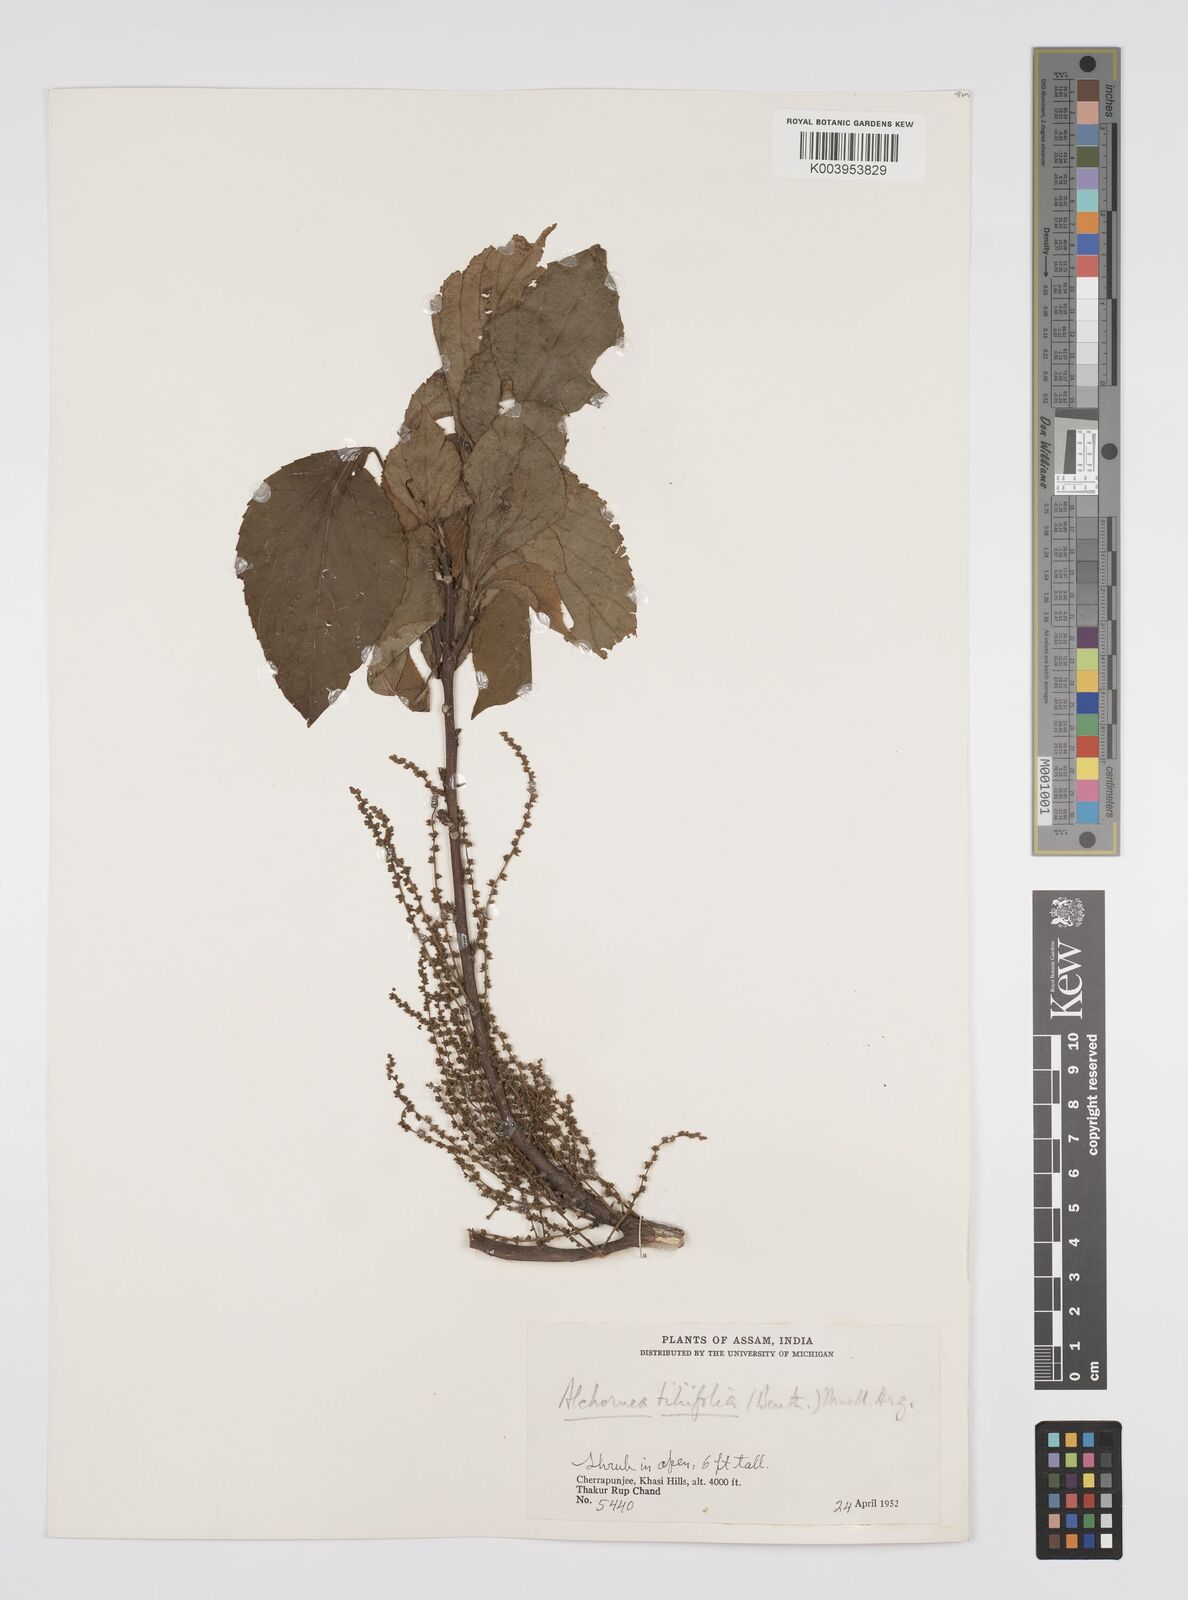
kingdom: Plantae
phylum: Tracheophyta
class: Magnoliopsida
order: Malpighiales
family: Euphorbiaceae
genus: Alchornea
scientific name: Alchornea tiliifolia
